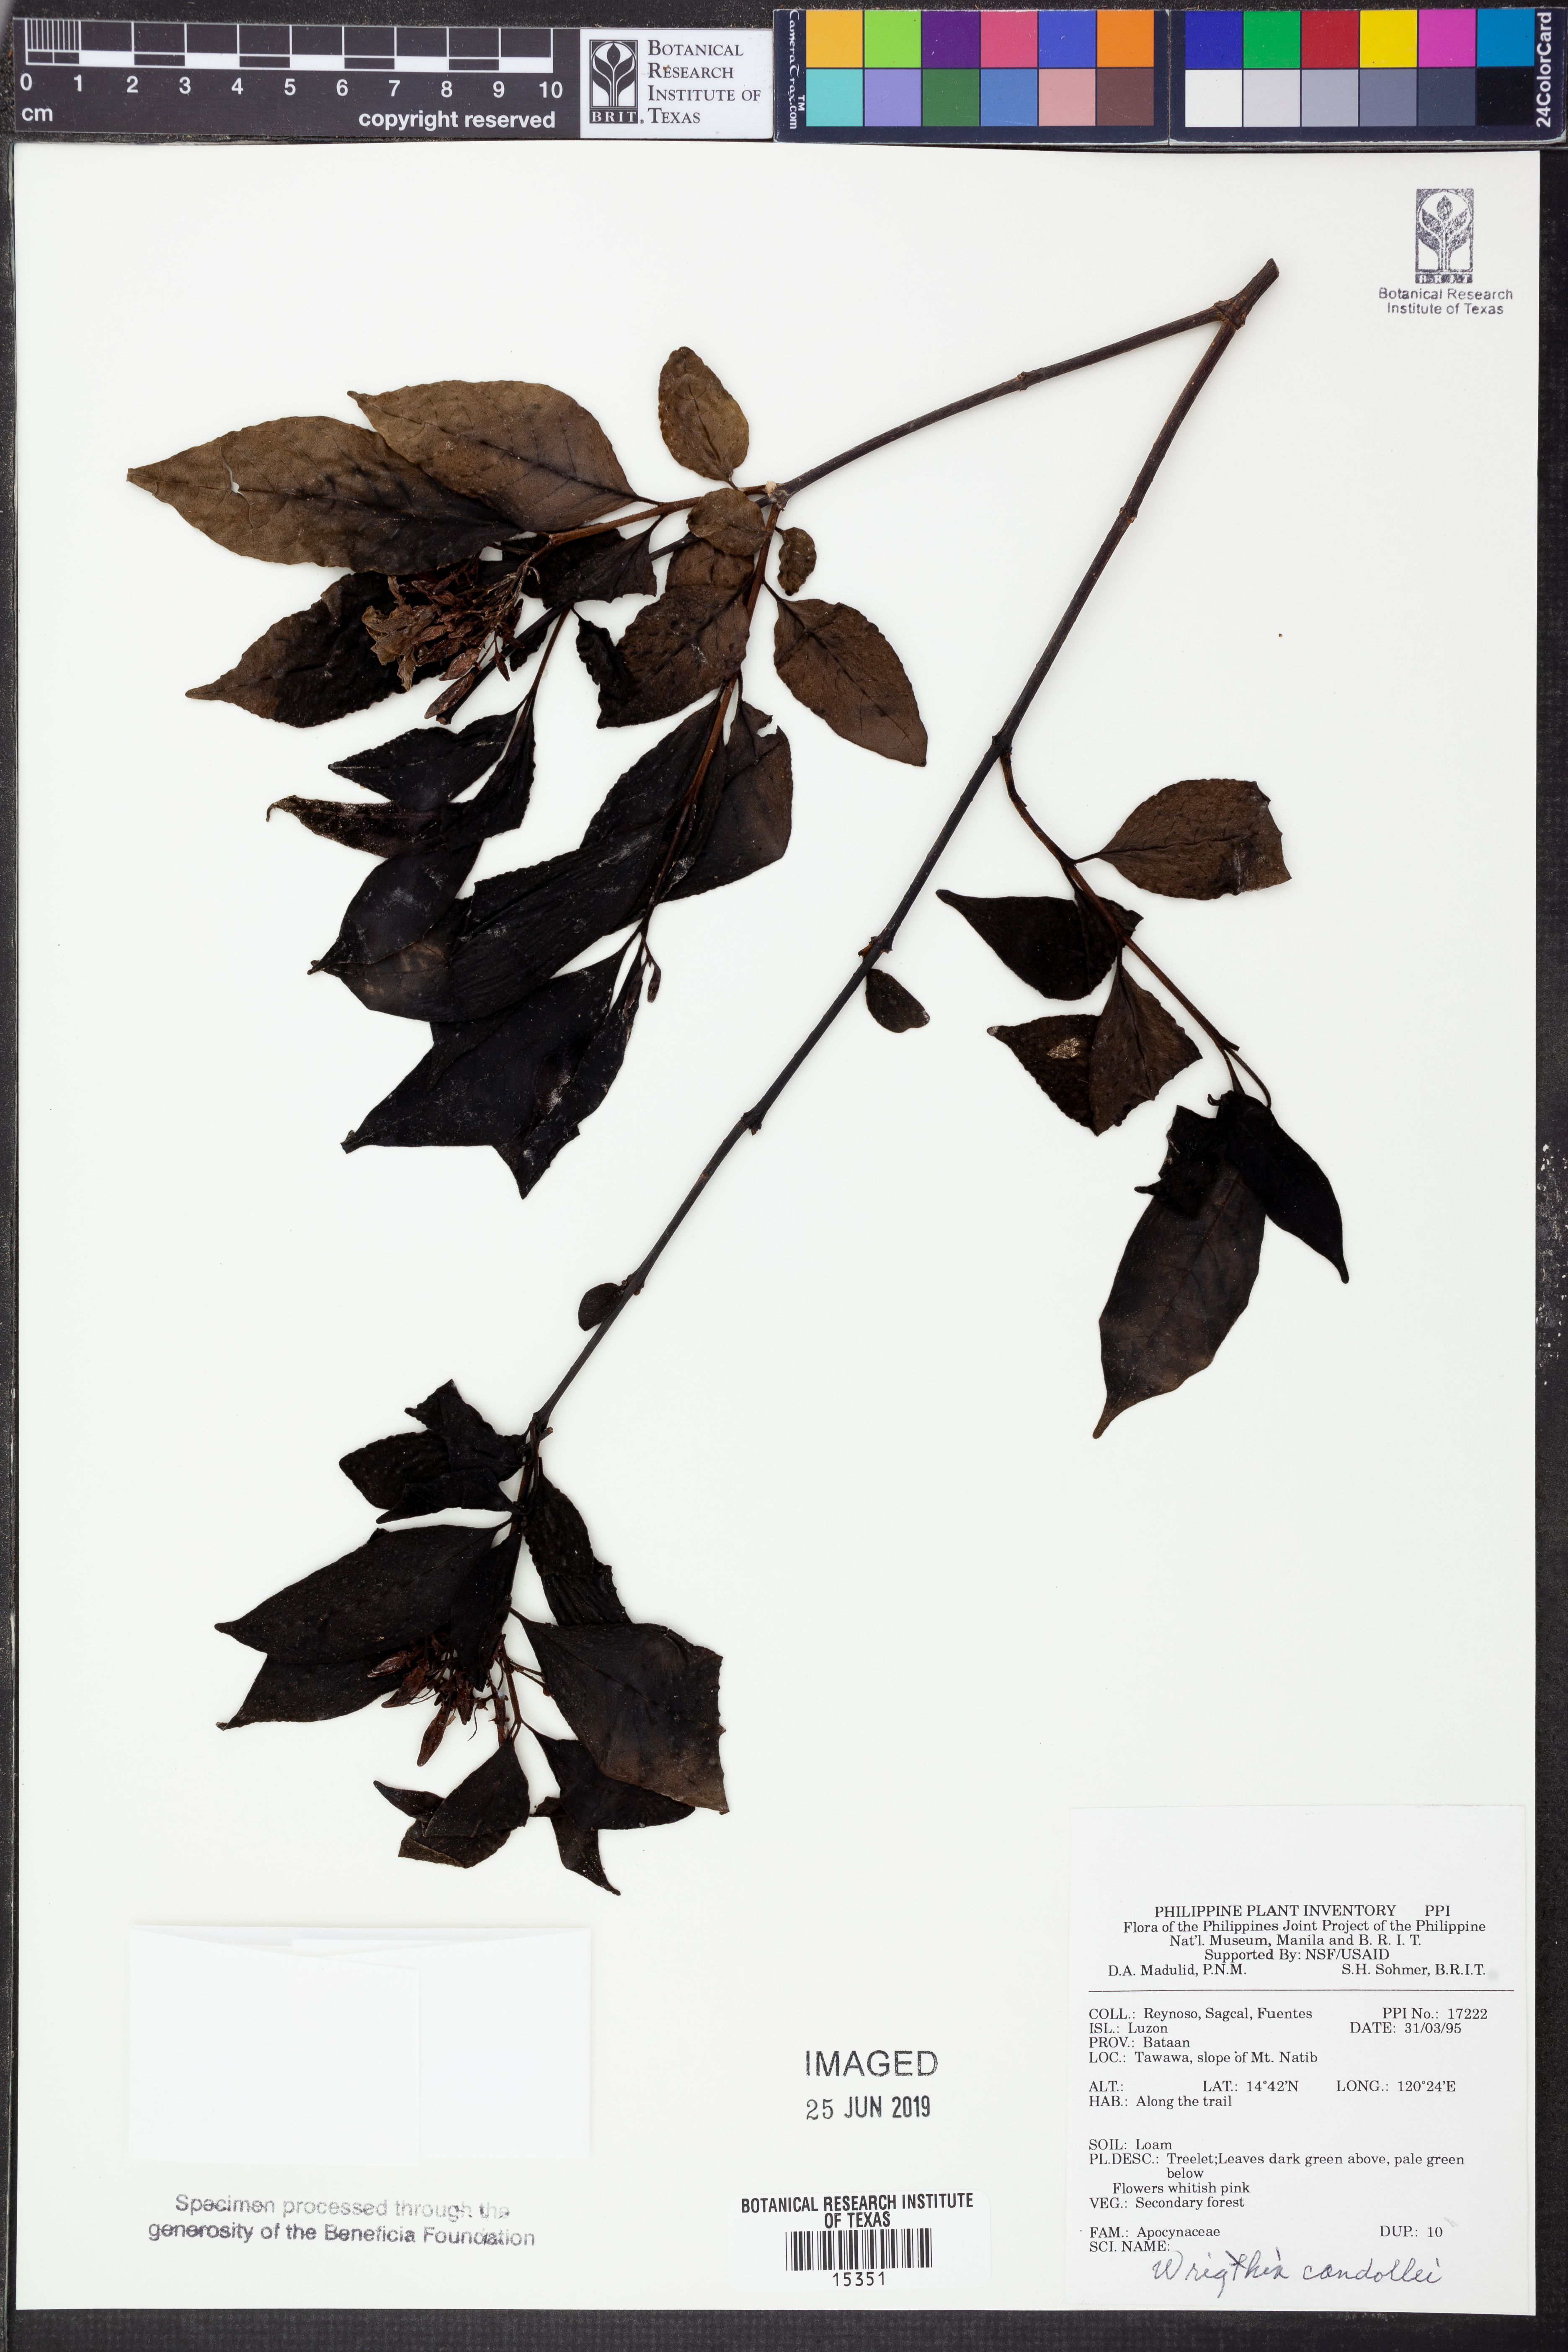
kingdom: Plantae
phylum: Tracheophyta
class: Magnoliopsida
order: Gentianales
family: Apocynaceae
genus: Wrightia
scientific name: Wrightia candollei
